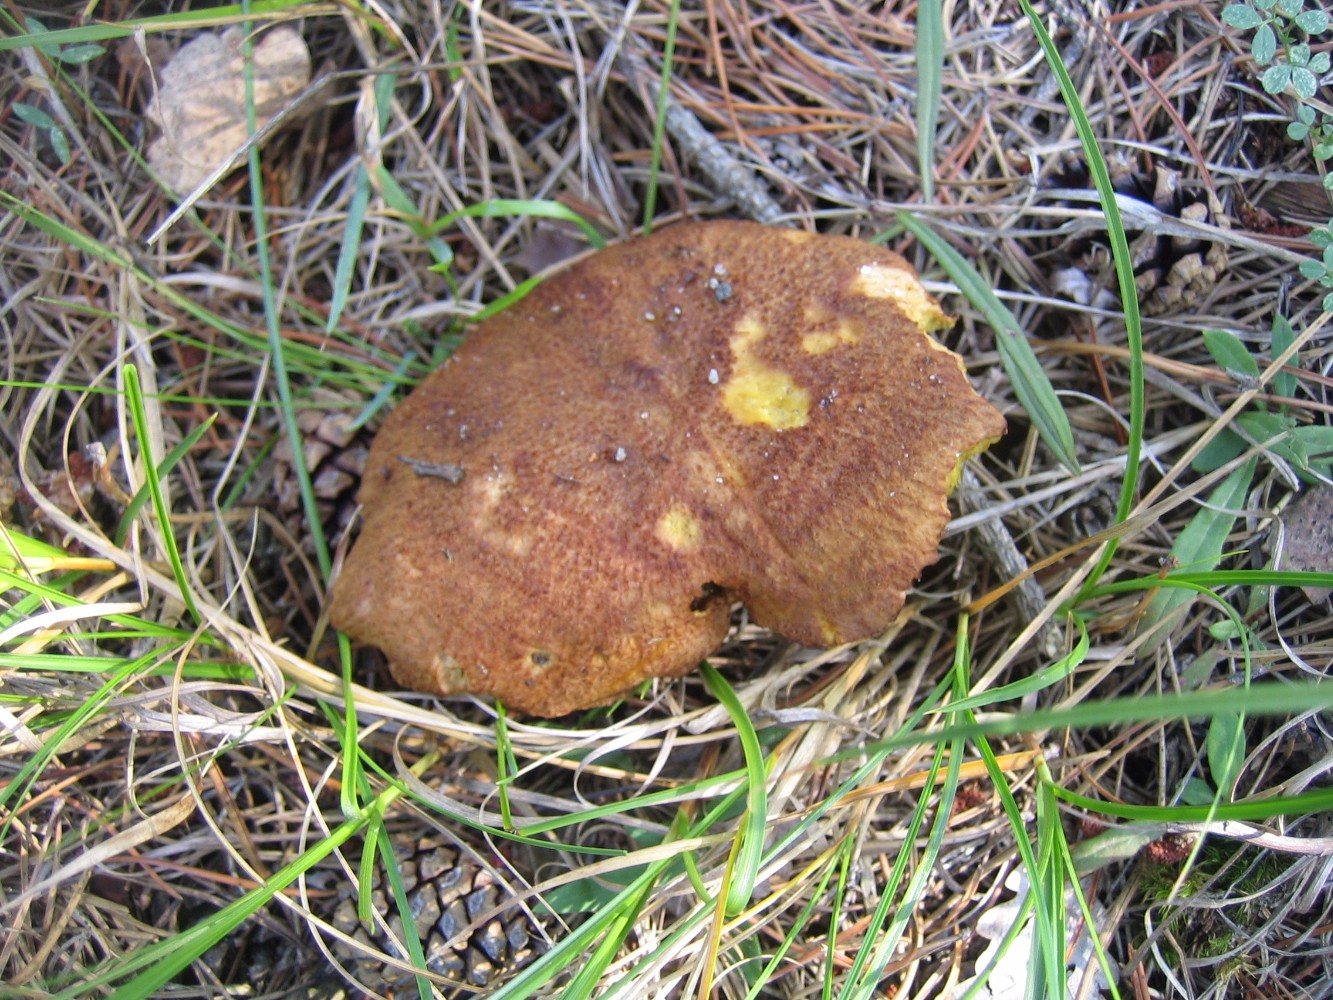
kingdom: Fungi
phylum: Basidiomycota
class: Agaricomycetes
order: Boletales
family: Suillaceae
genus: Suillus
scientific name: Suillus cavipes
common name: hulstokket slimrørhat
